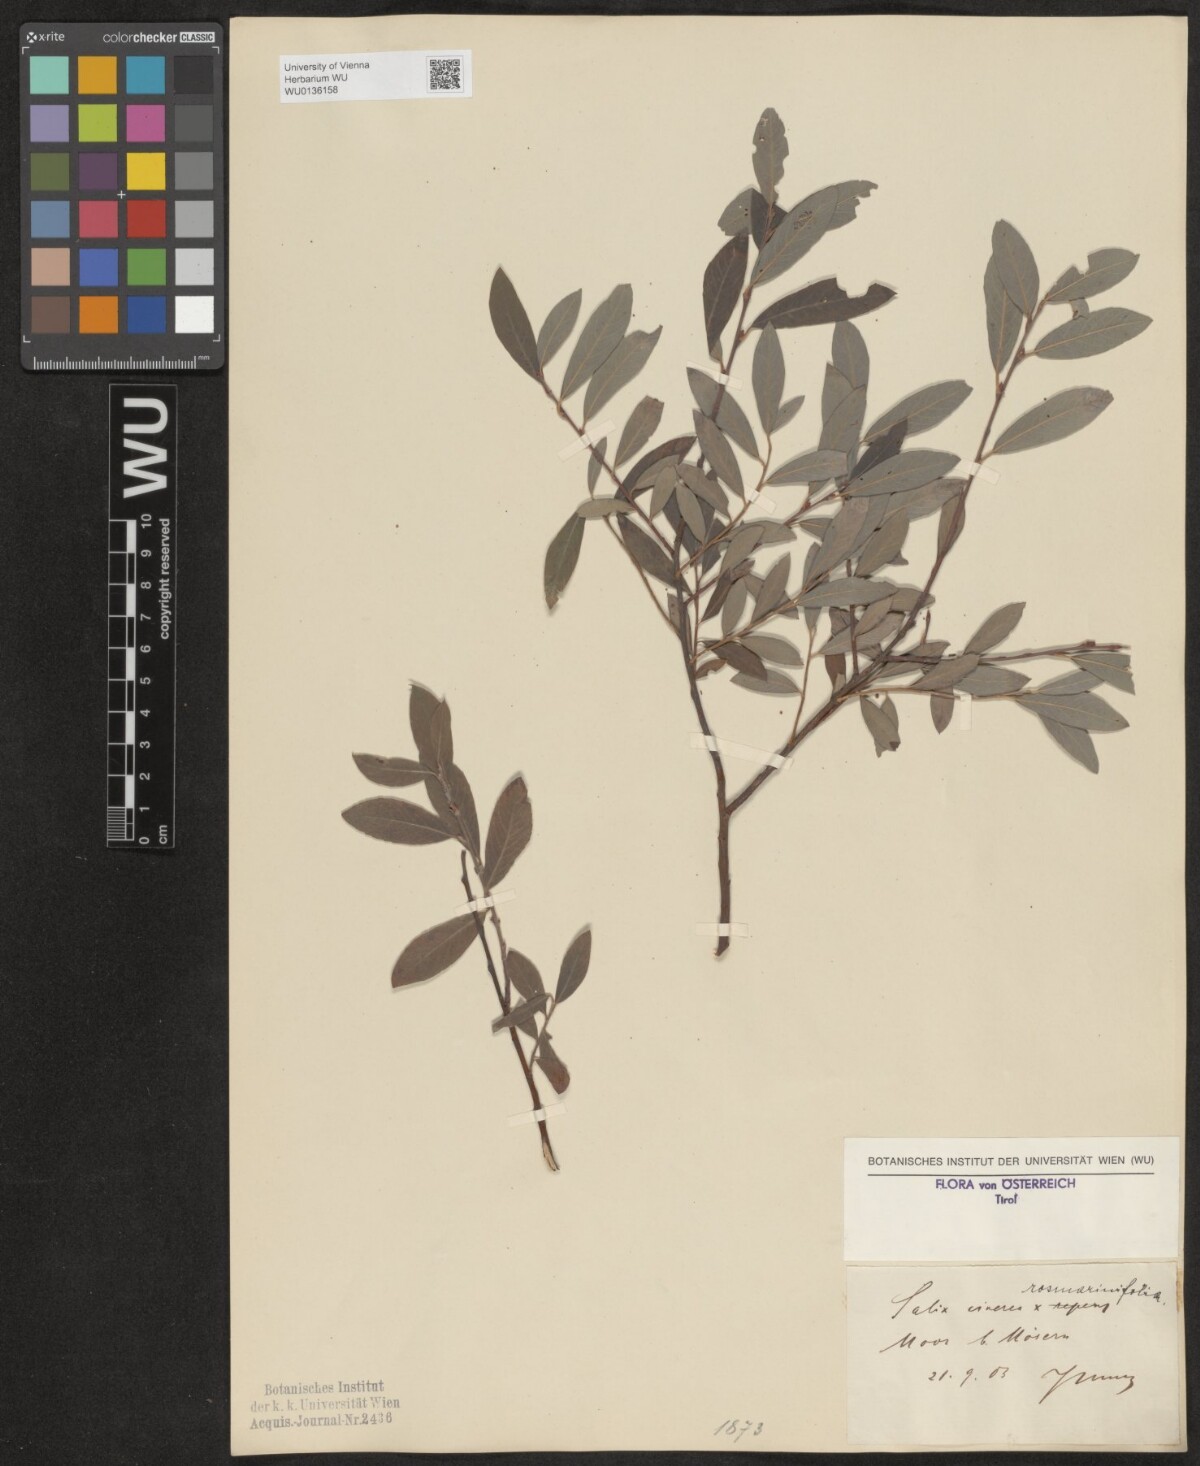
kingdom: Plantae
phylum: Tracheophyta
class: Magnoliopsida
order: Malpighiales
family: Salicaceae
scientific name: Salicaceae
